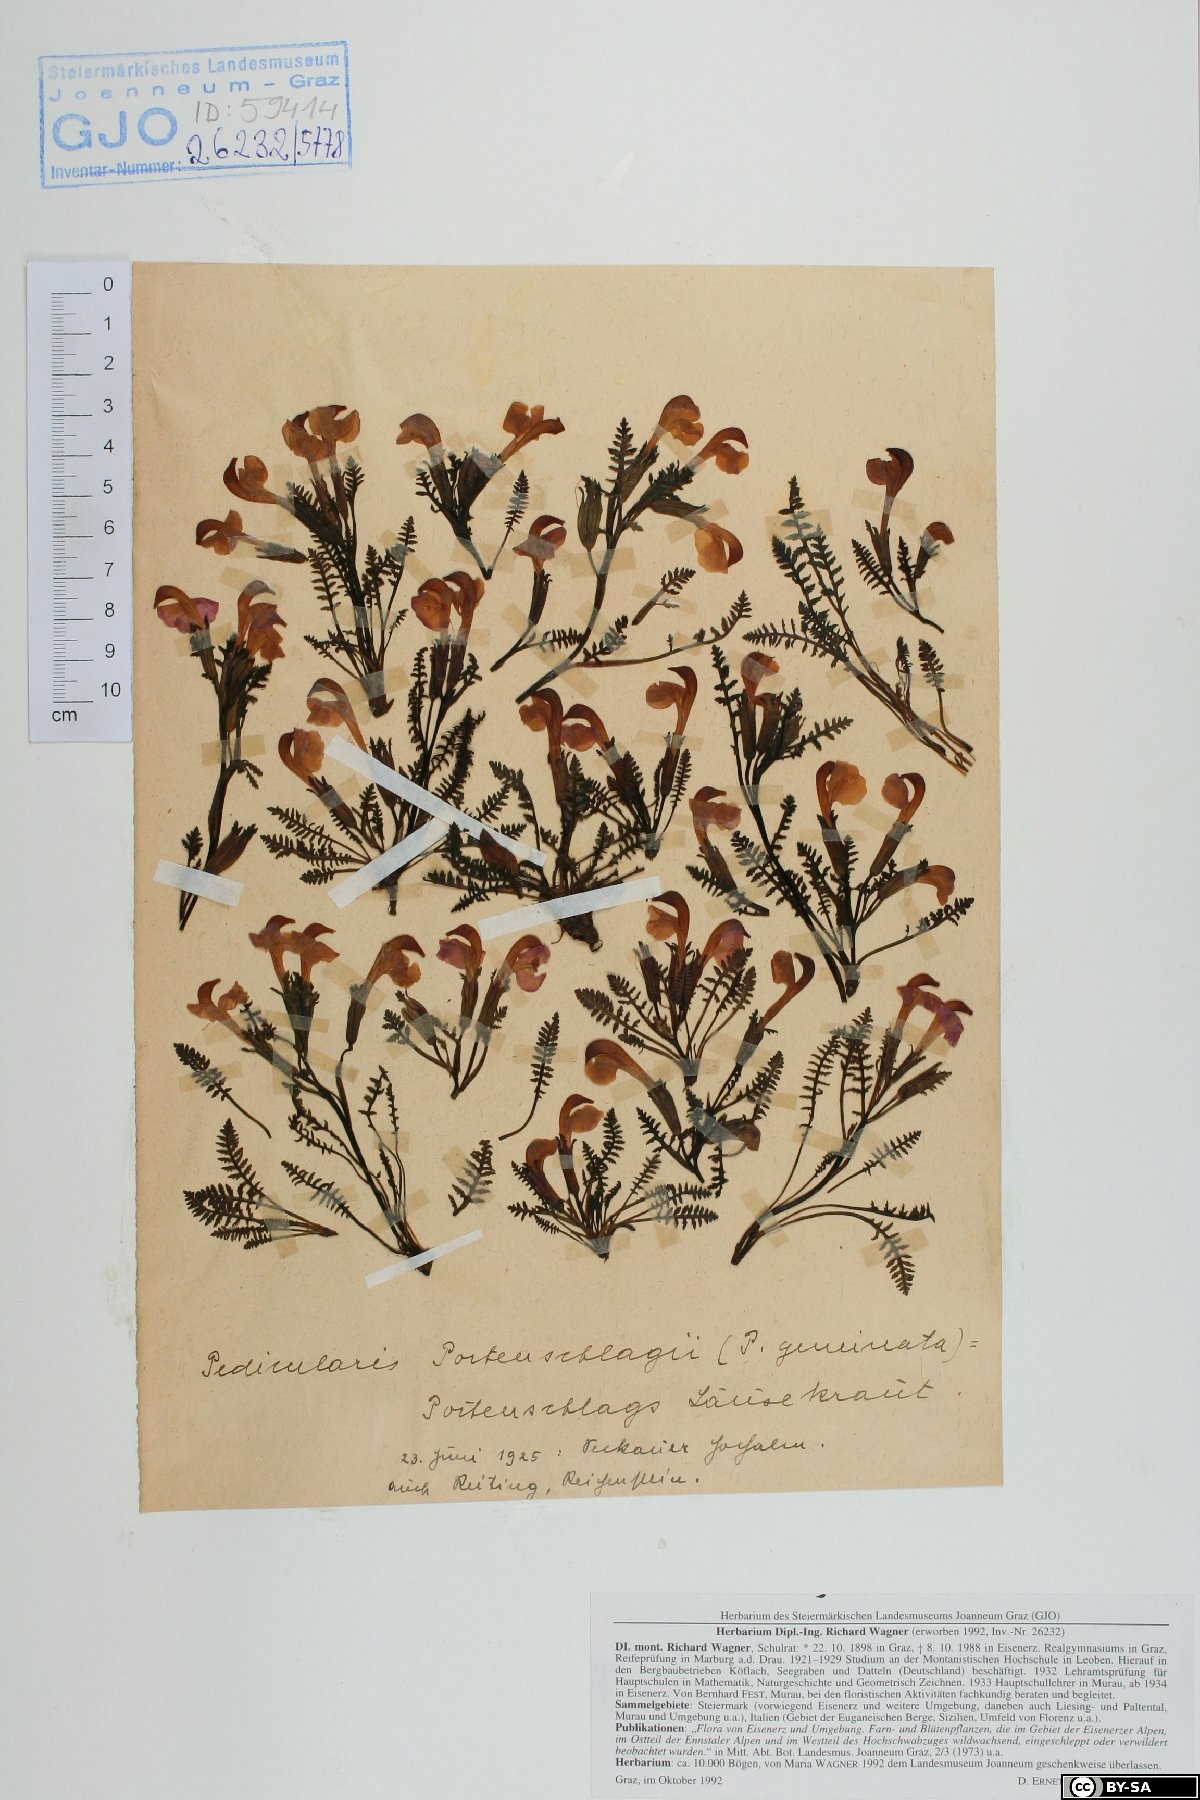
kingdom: Plantae
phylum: Tracheophyta
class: Magnoliopsida
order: Lamiales
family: Orobanchaceae
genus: Pedicularis
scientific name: Pedicularis portenschlagii
